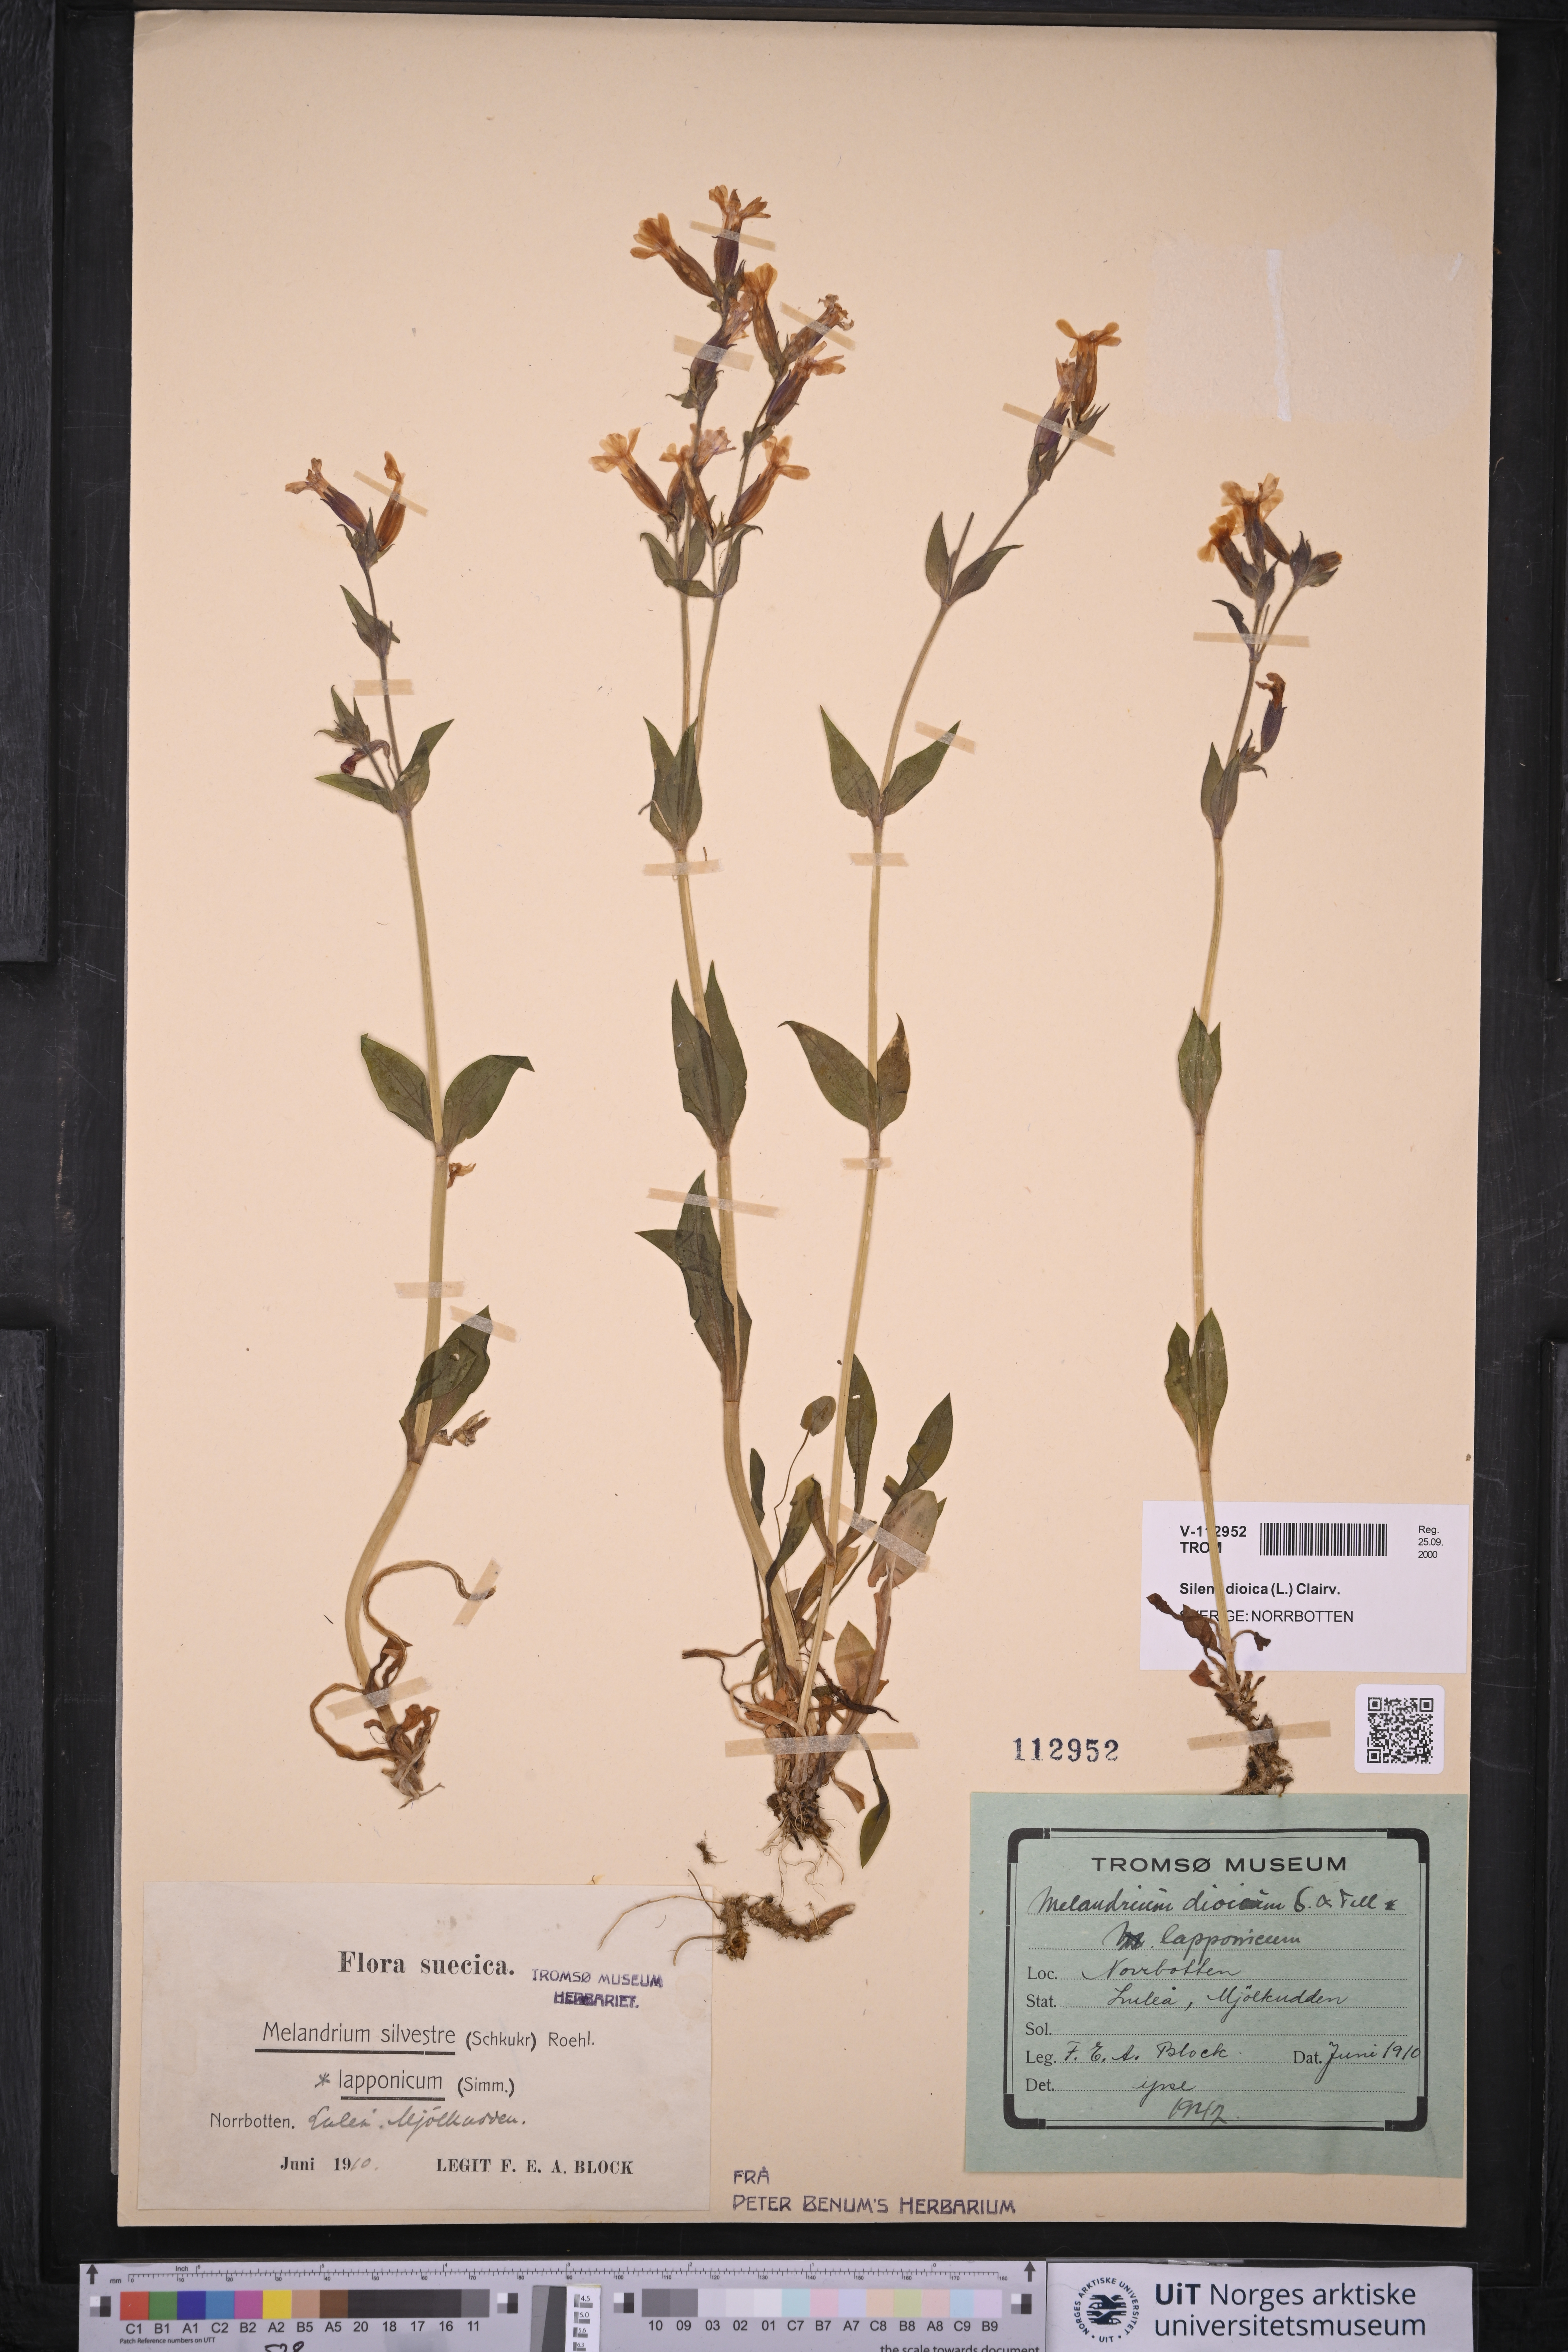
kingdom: Plantae
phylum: Tracheophyta
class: Magnoliopsida
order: Caryophyllales
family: Caryophyllaceae
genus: Silene
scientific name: Silene dioica
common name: Red campion
